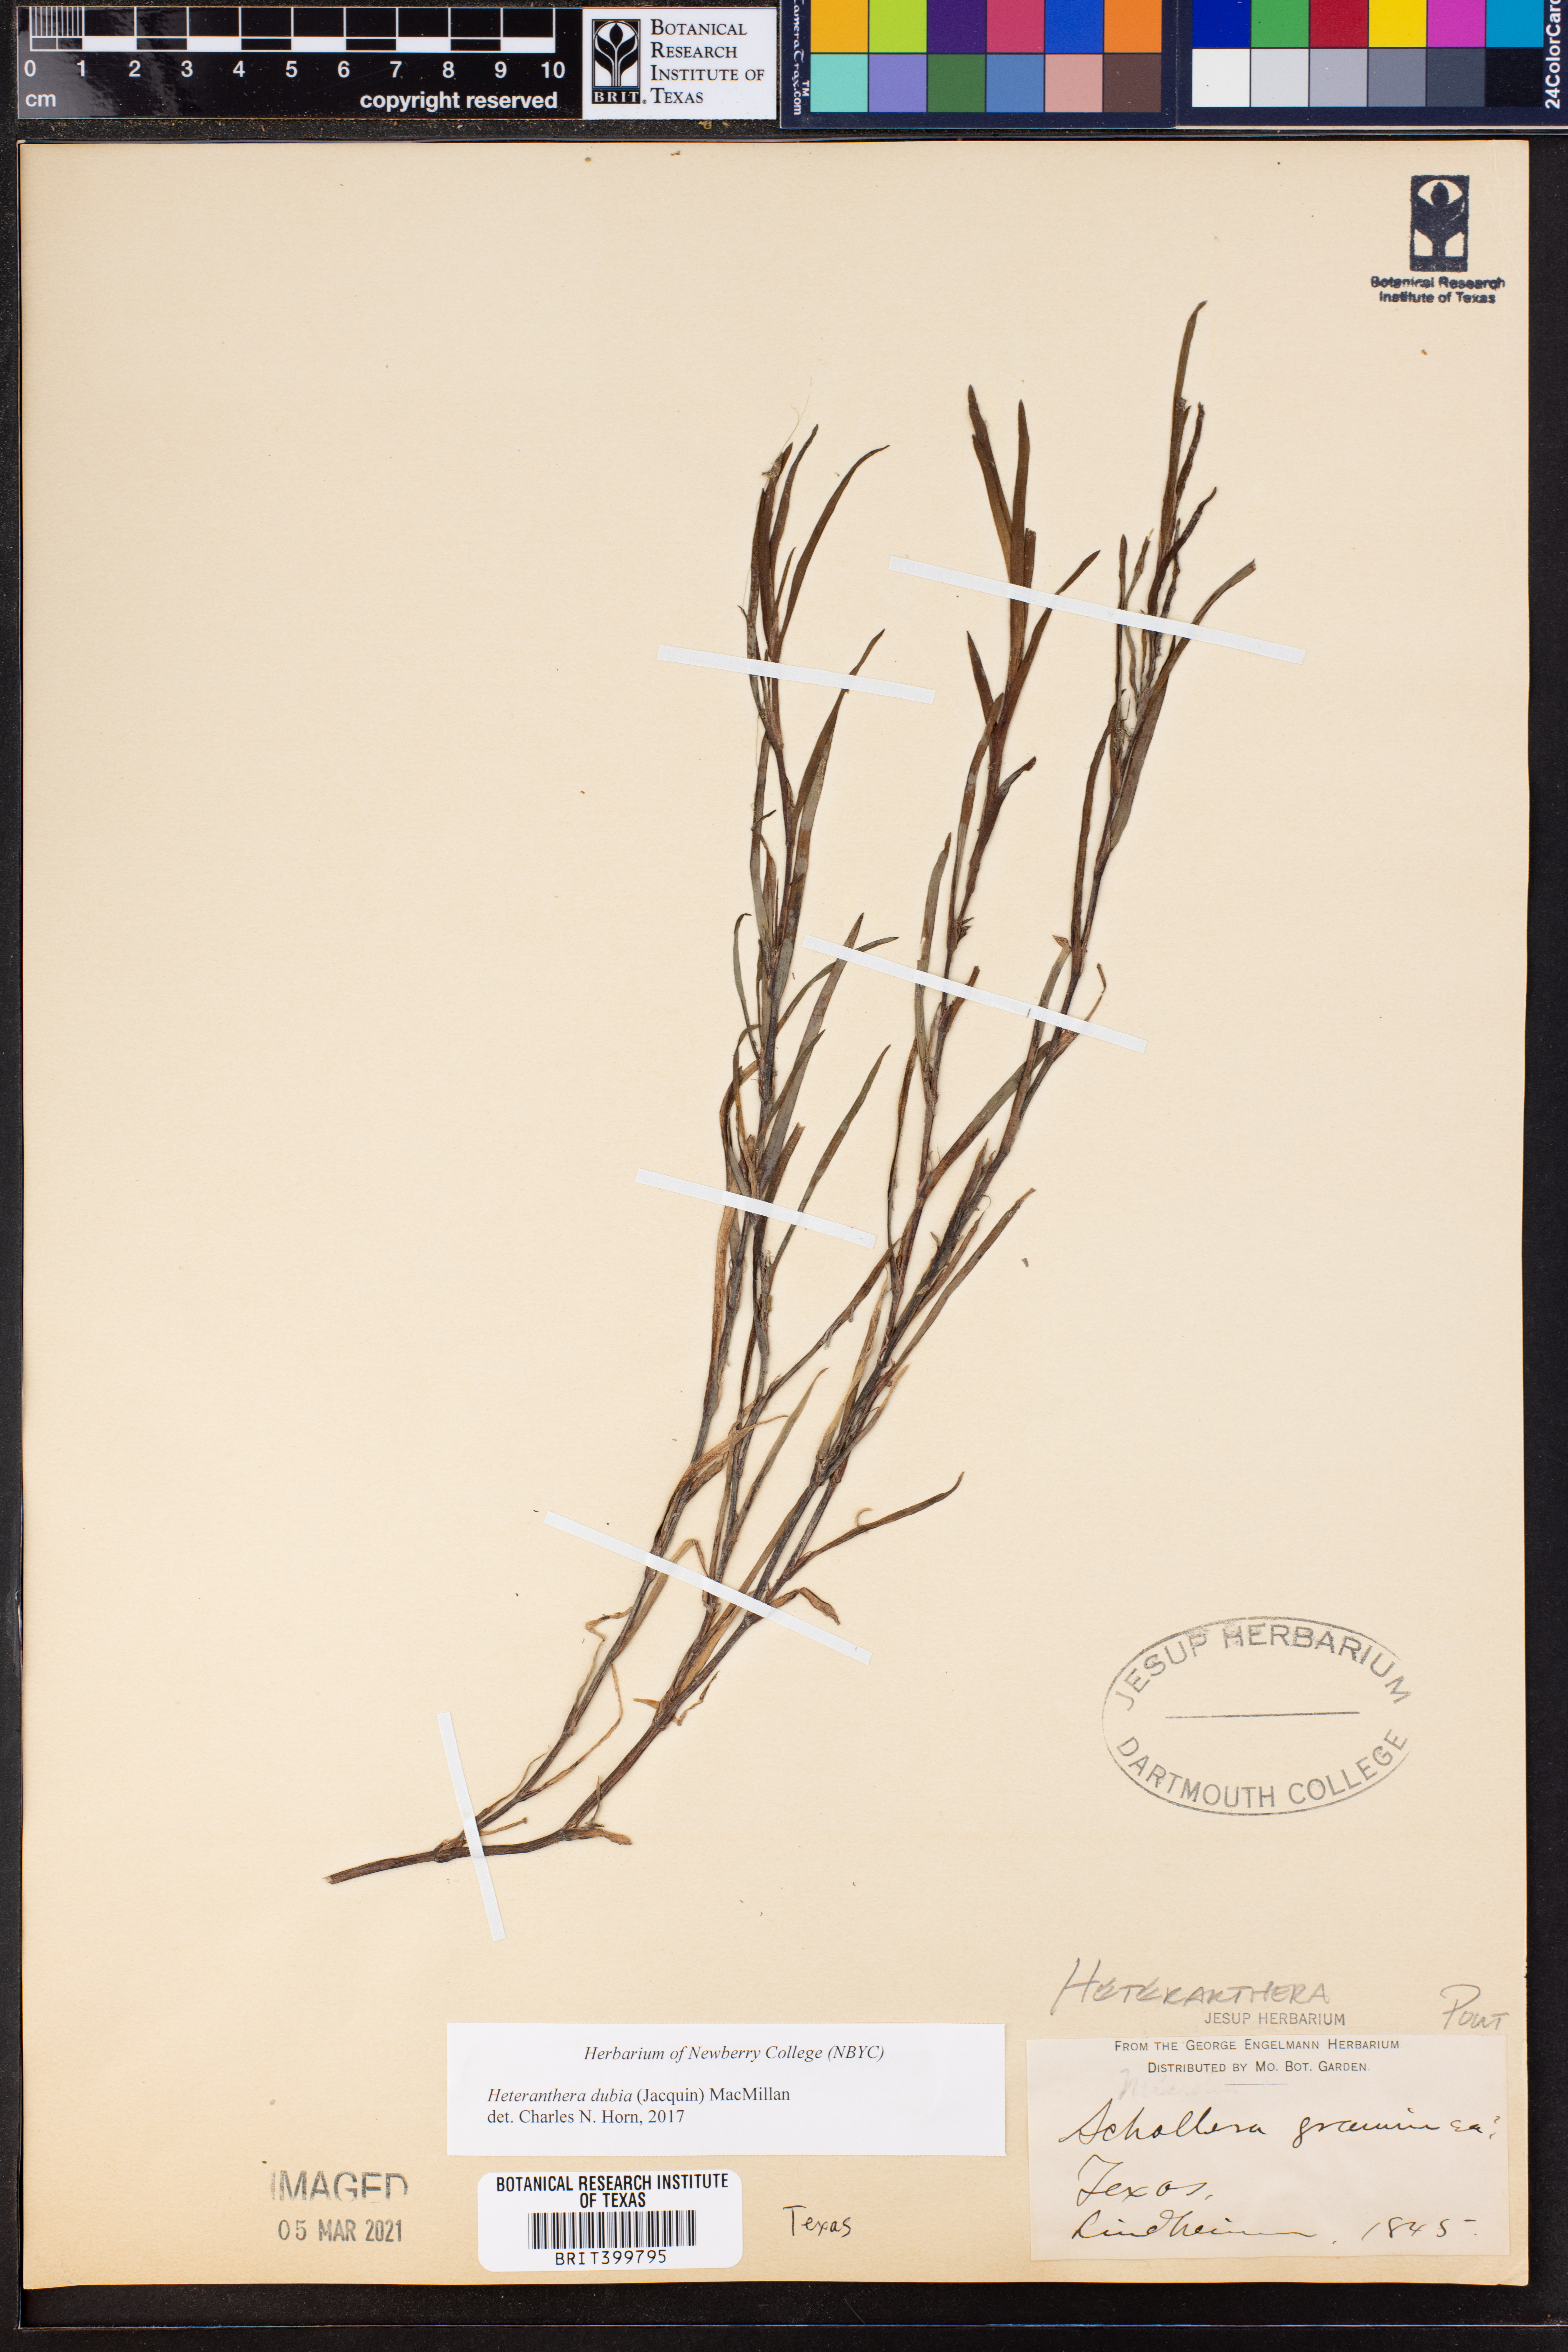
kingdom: Plantae
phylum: Tracheophyta
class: Liliopsida
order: Commelinales
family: Pontederiaceae
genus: Heteranthera
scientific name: Heteranthera dubia
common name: Grass-leaved mud plantain
